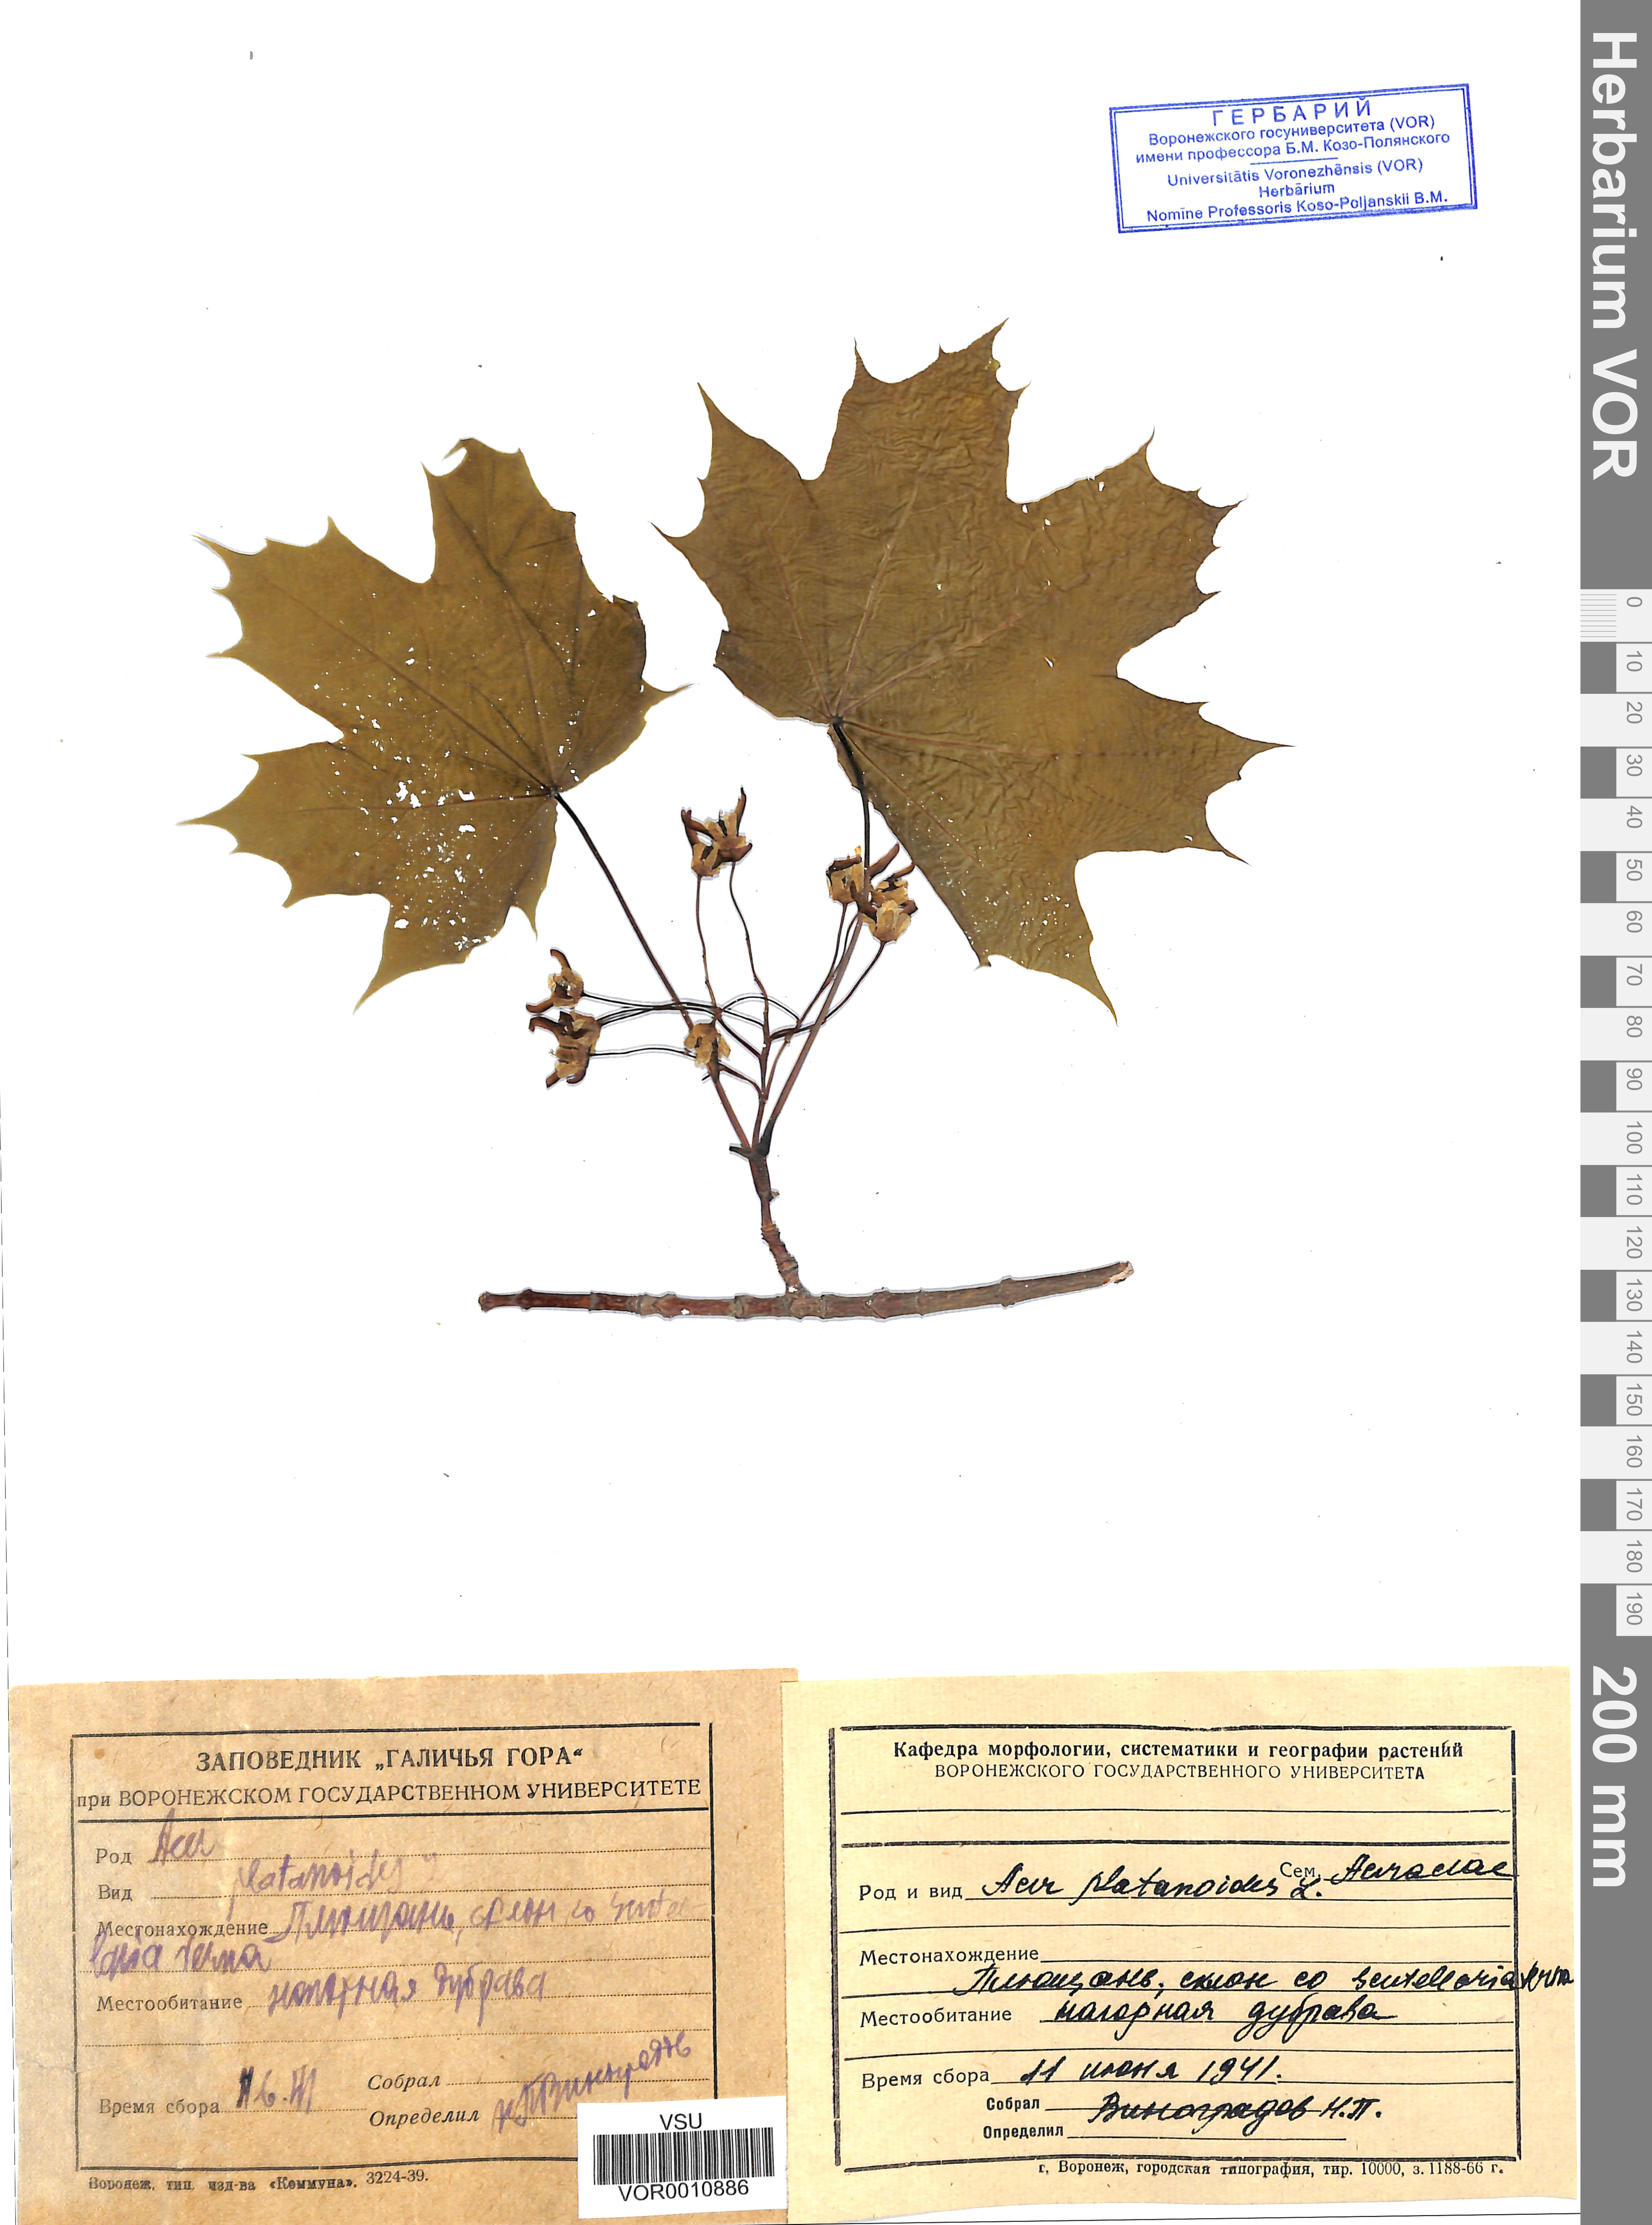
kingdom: Plantae
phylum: Tracheophyta
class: Magnoliopsida
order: Sapindales
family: Sapindaceae
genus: Acer
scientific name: Acer platanoides
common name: Norway maple
